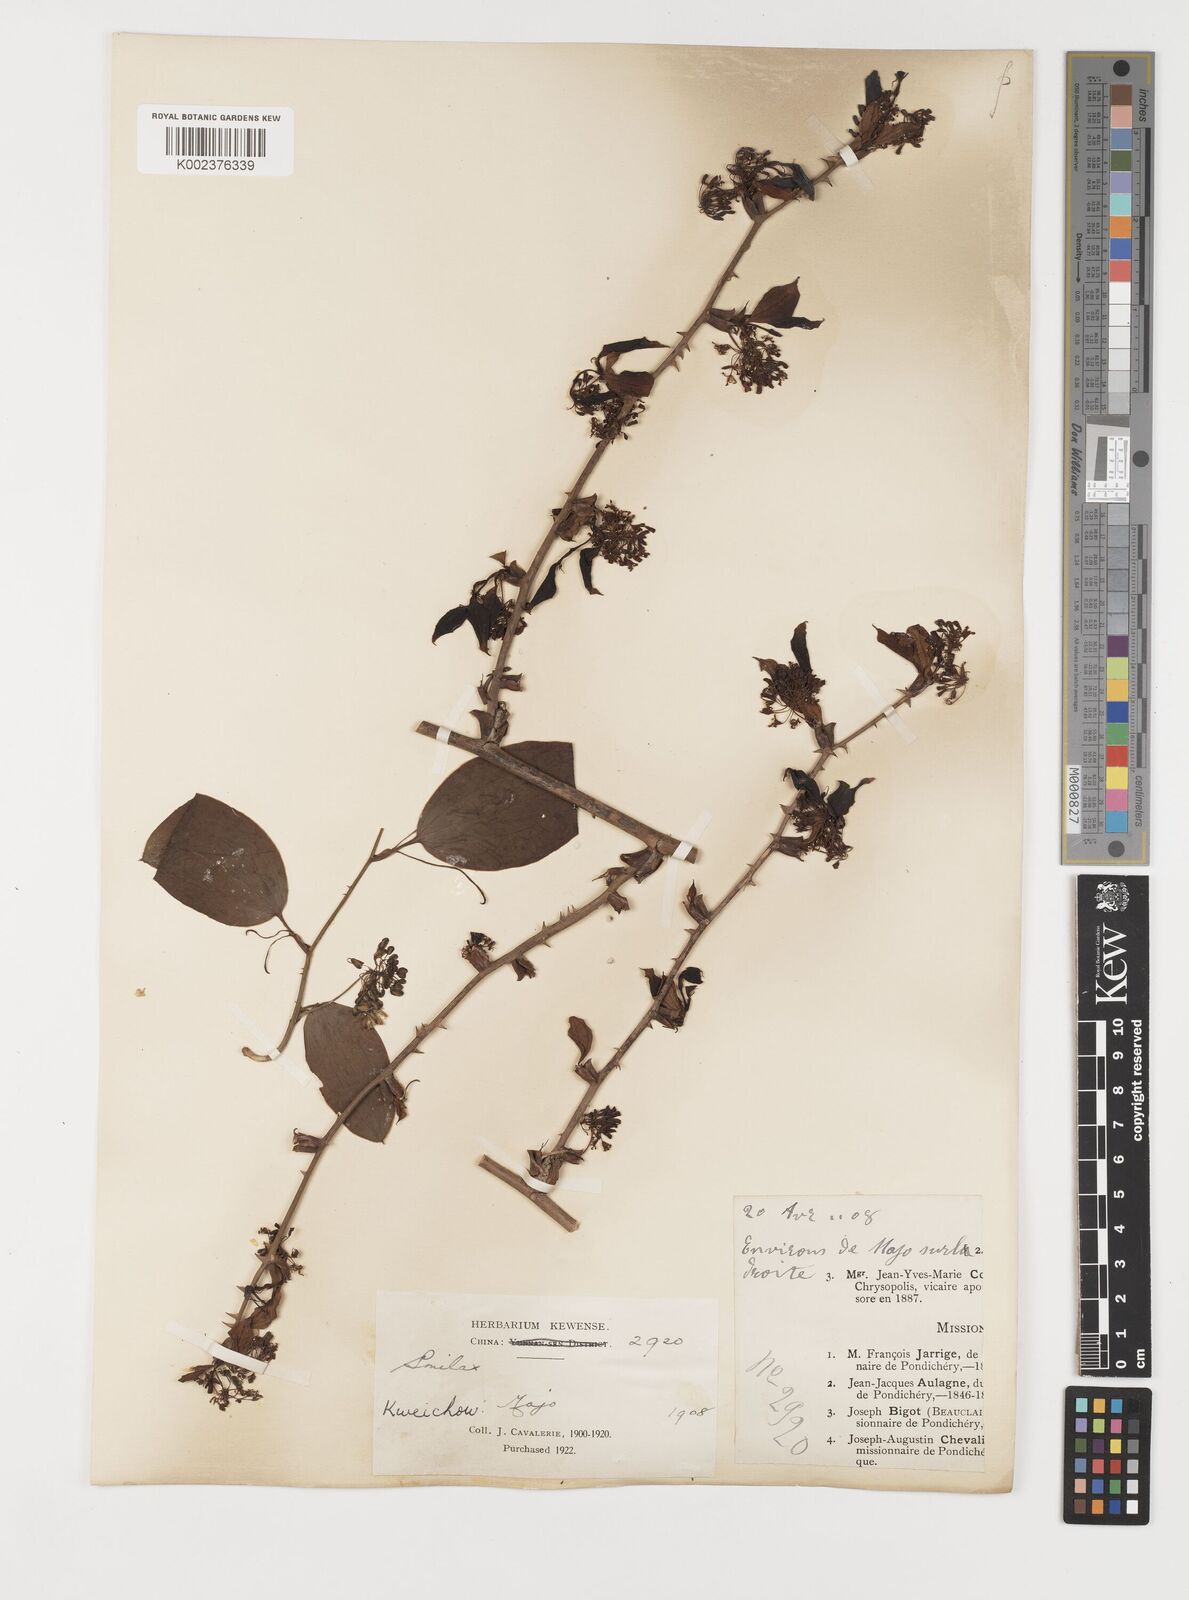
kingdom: Plantae
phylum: Tracheophyta
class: Liliopsida
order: Liliales
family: Smilacaceae
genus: Smilax
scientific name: Smilax china
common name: Chinaroot
